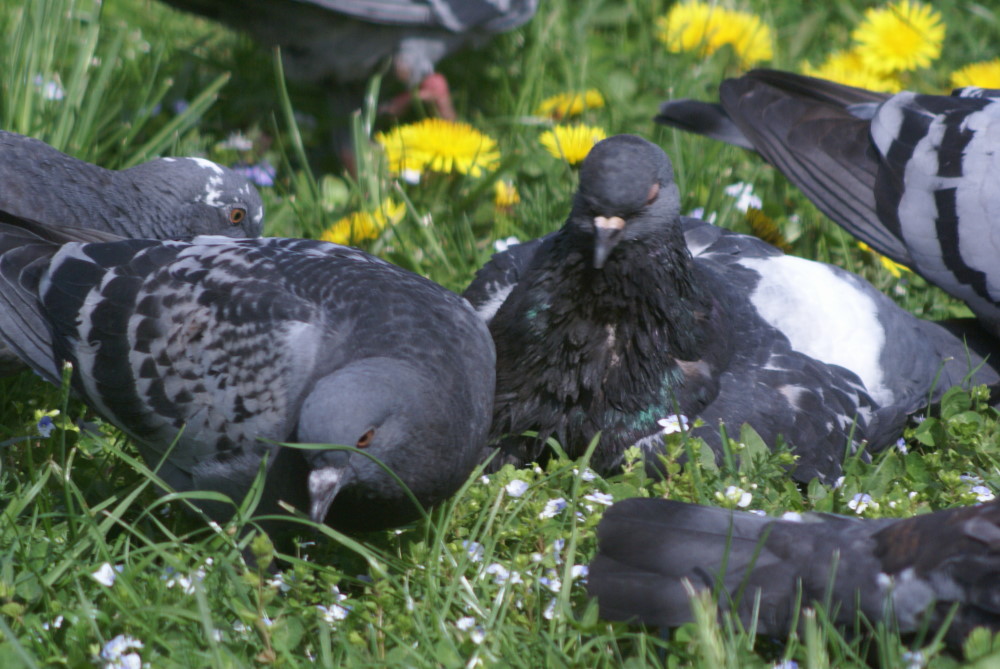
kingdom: Animalia
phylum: Chordata
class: Aves
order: Columbiformes
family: Columbidae
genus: Columba
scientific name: Columba livia
